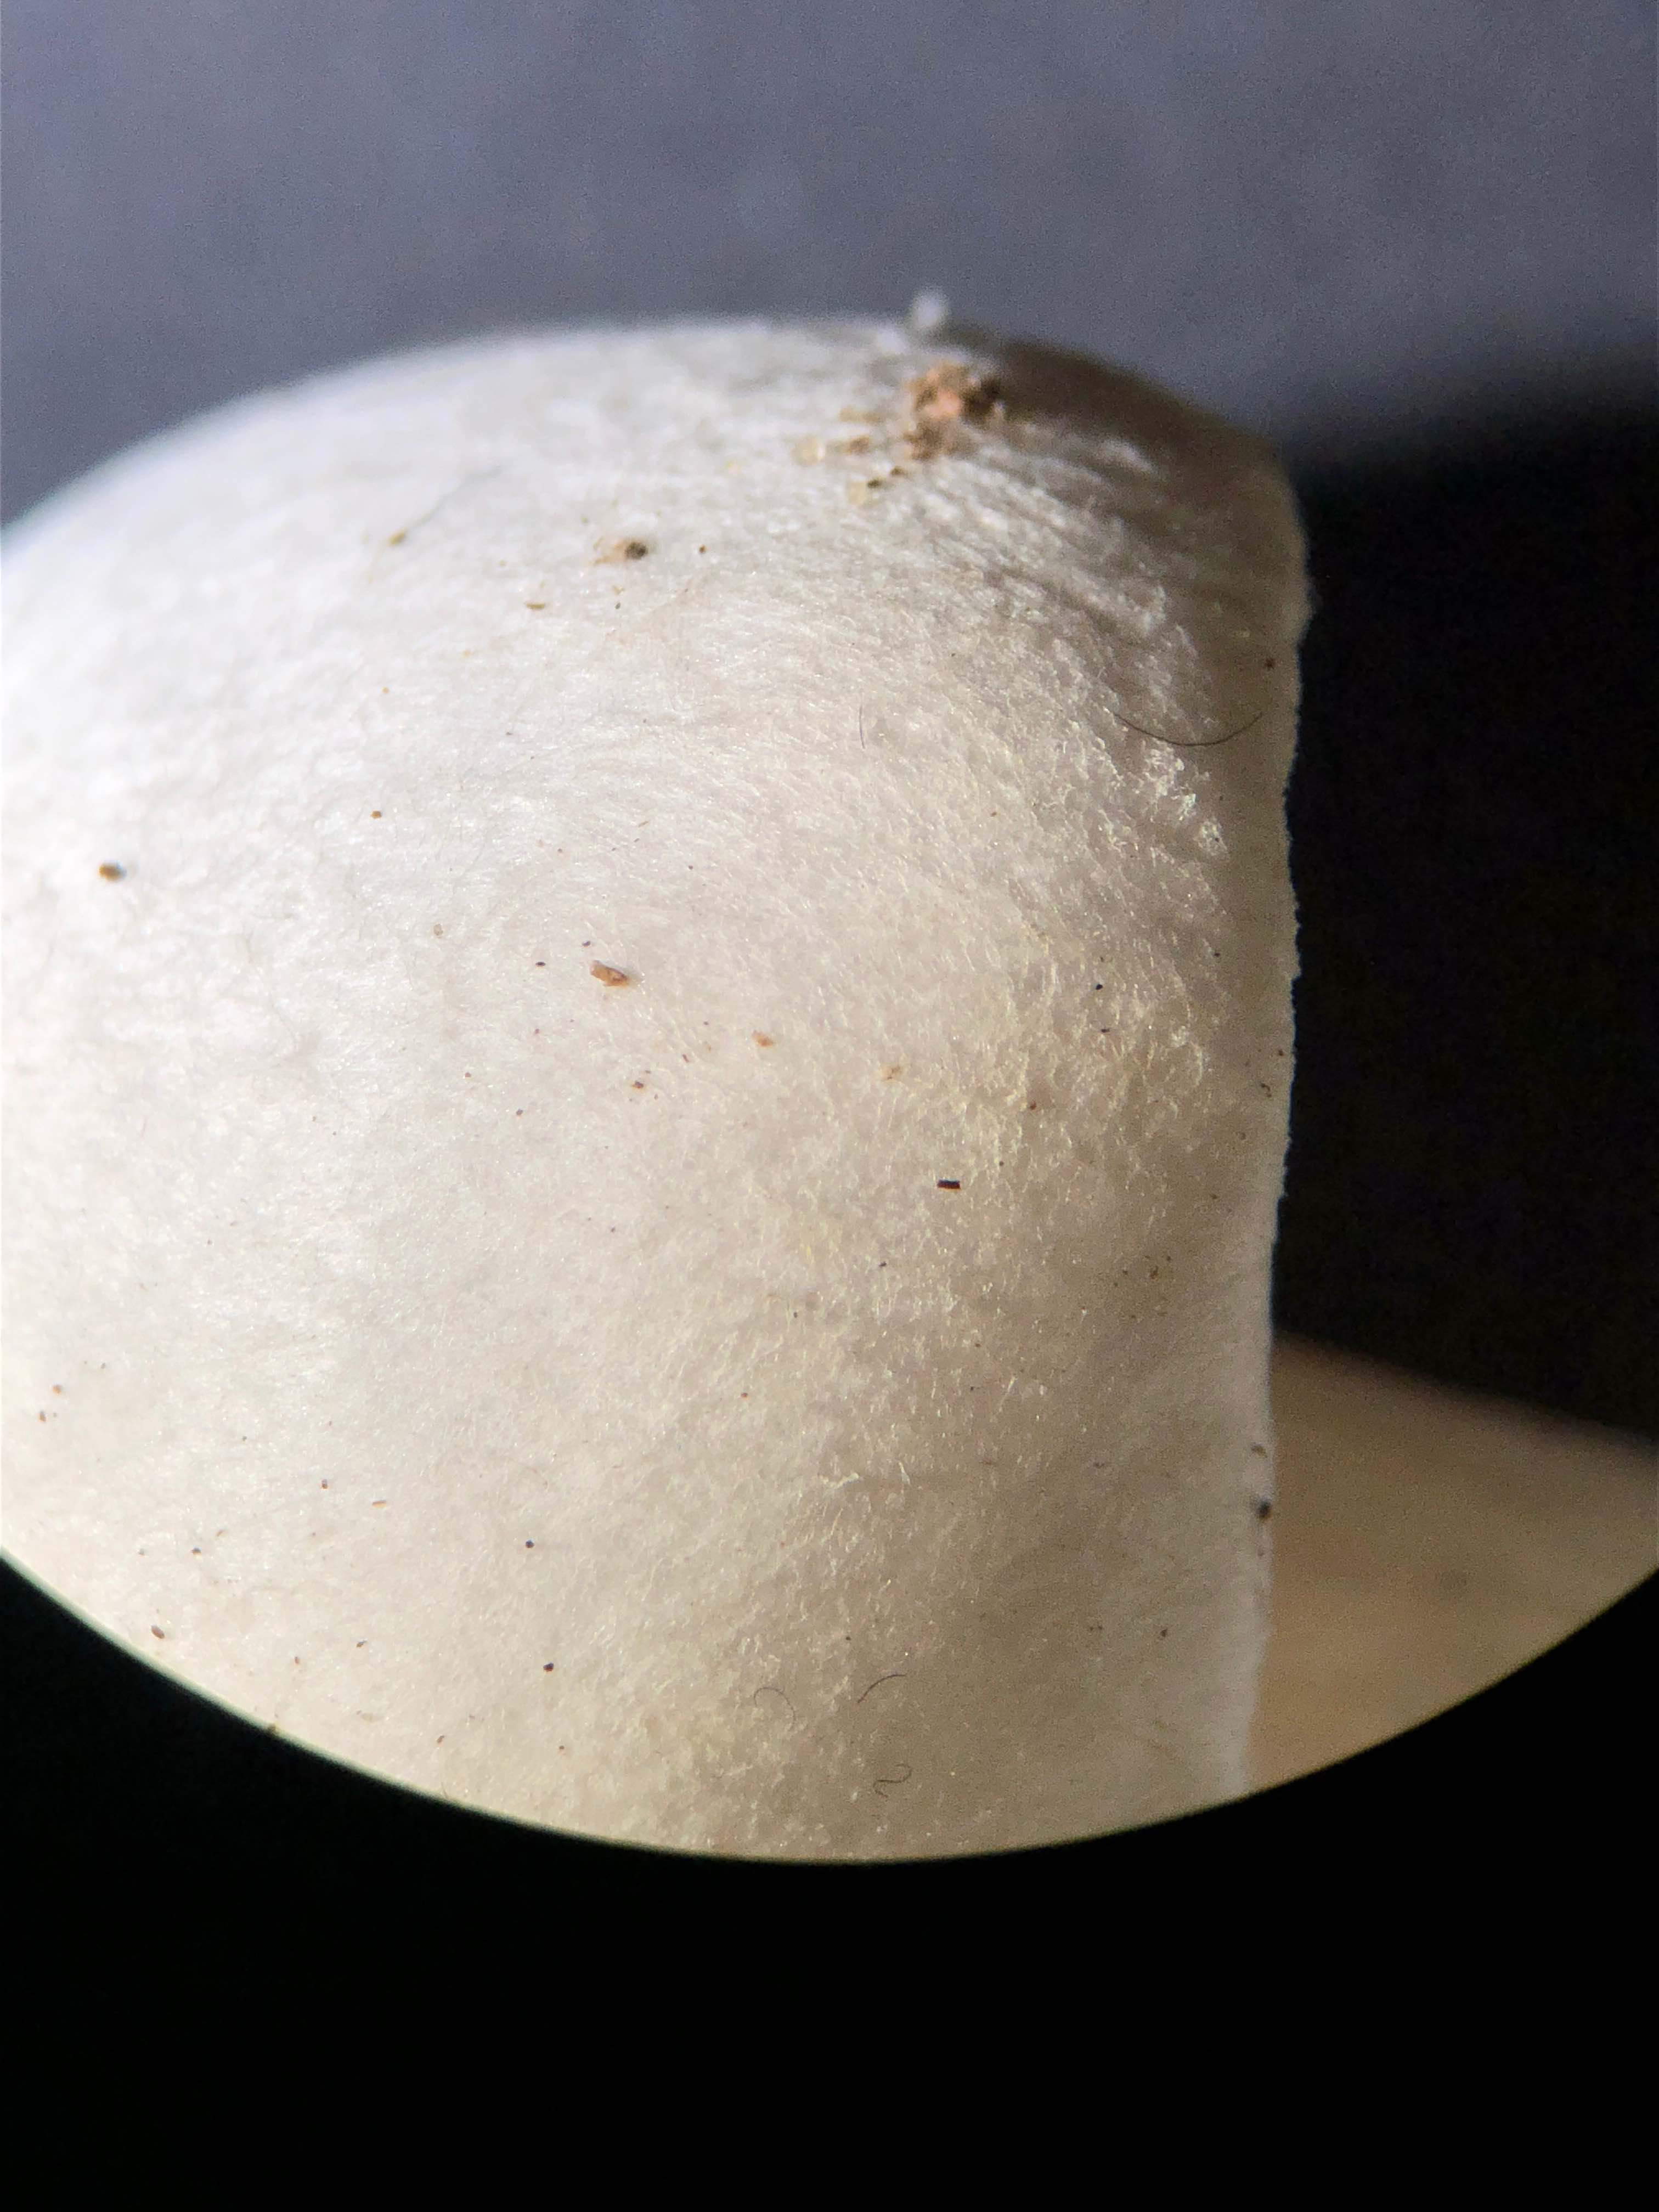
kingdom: Fungi
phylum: Basidiomycota
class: Agaricomycetes
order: Agaricales
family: Tricholomataceae
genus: Tricholoma
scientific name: Tricholoma argyraceum
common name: slør-ridderhat
